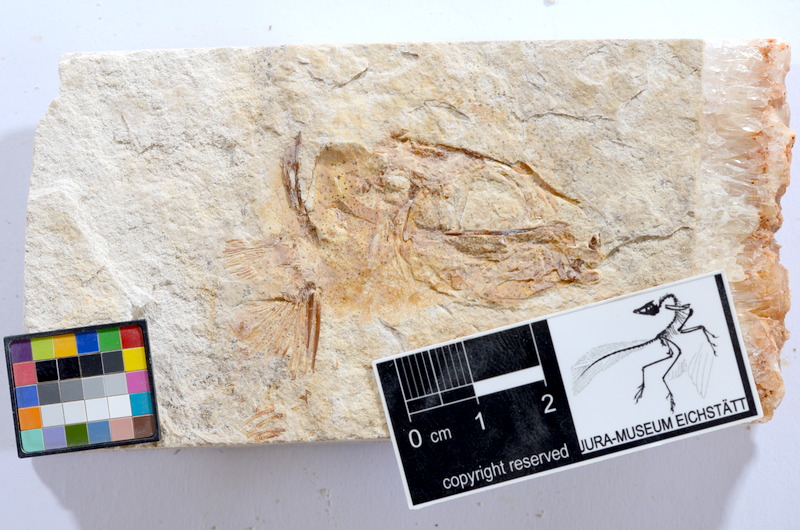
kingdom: Animalia
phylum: Chordata
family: Ascalaboidae
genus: Tharsis
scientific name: Tharsis dubius
